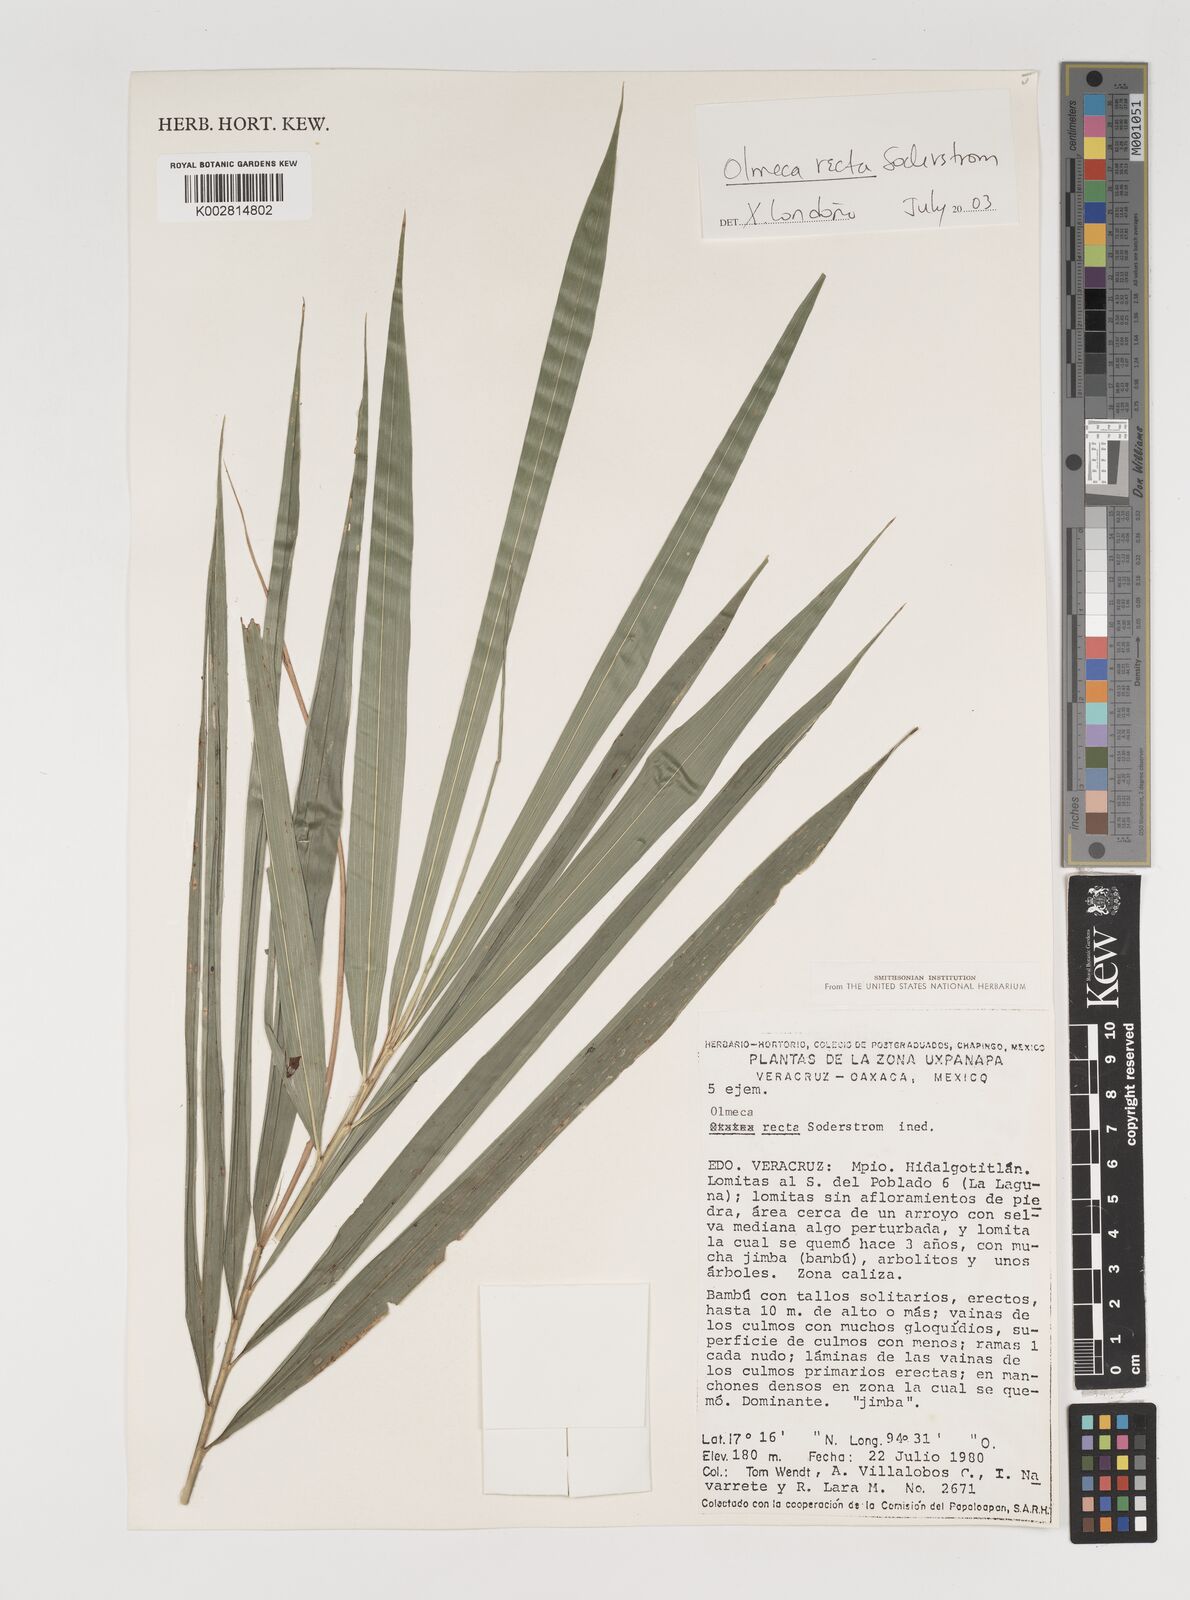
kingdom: Plantae
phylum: Tracheophyta
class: Liliopsida
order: Poales
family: Poaceae
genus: Olmeca
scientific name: Olmeca recta
